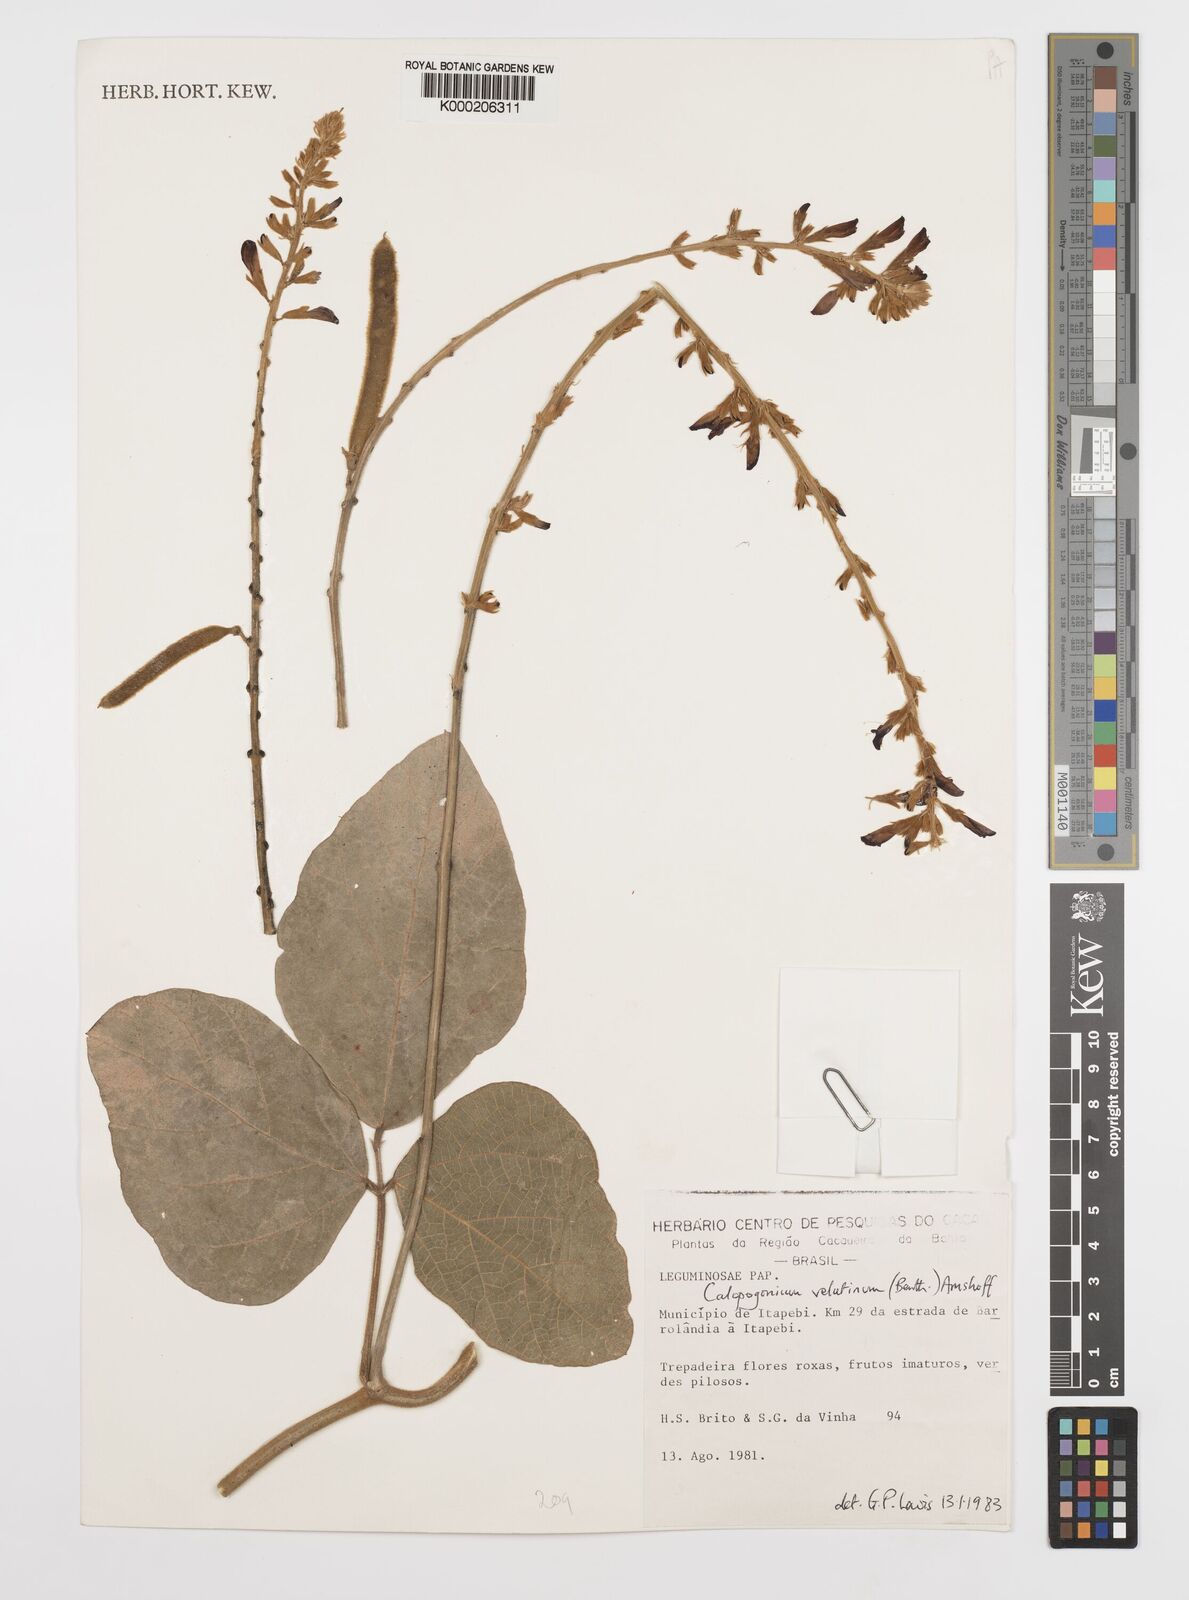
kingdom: Plantae
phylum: Tracheophyta
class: Magnoliopsida
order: Fabales
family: Fabaceae
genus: Calopogonium
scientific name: Calopogonium velutinum
